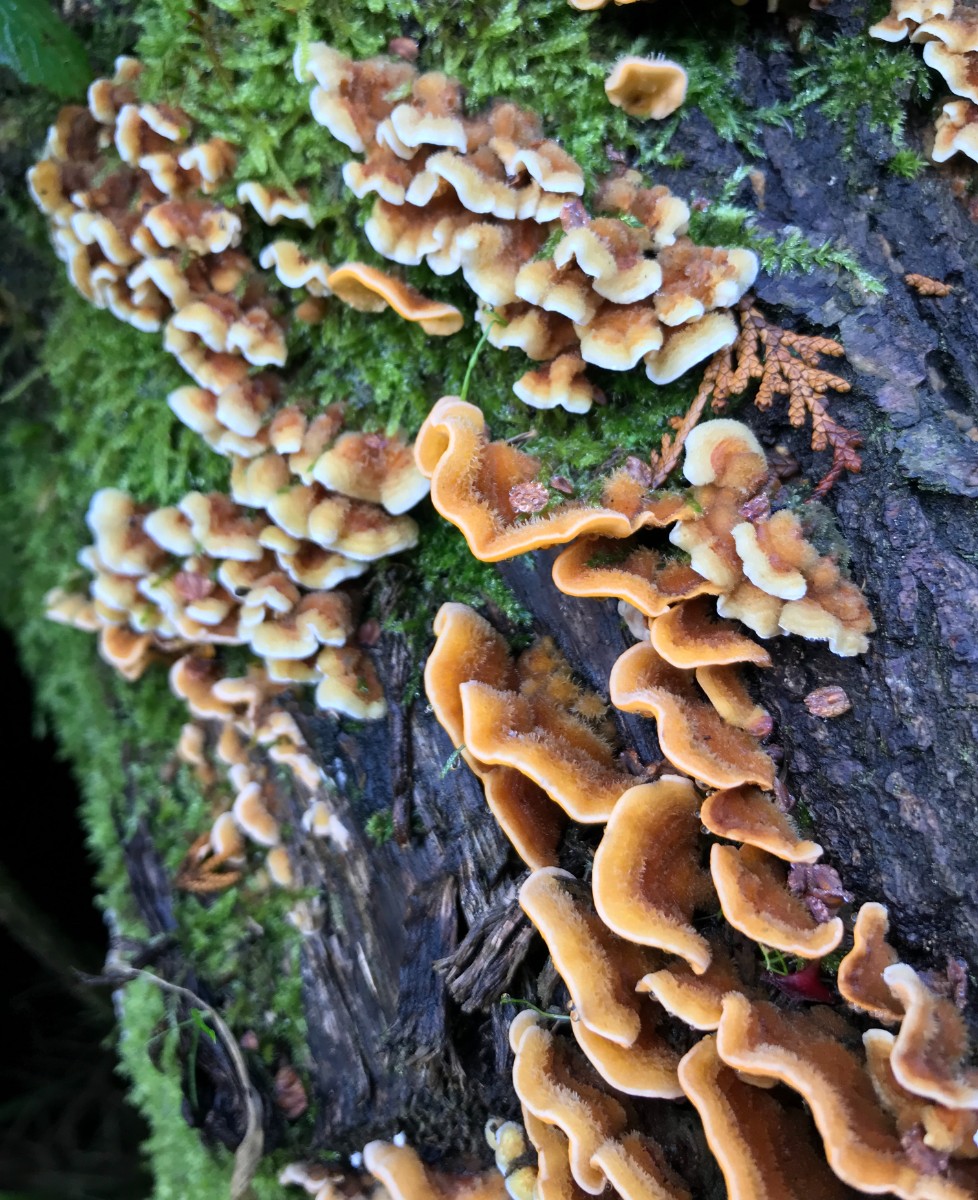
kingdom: Fungi
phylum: Basidiomycota
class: Agaricomycetes
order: Russulales
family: Stereaceae
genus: Stereum
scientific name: Stereum hirsutum
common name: håret lædersvamp
